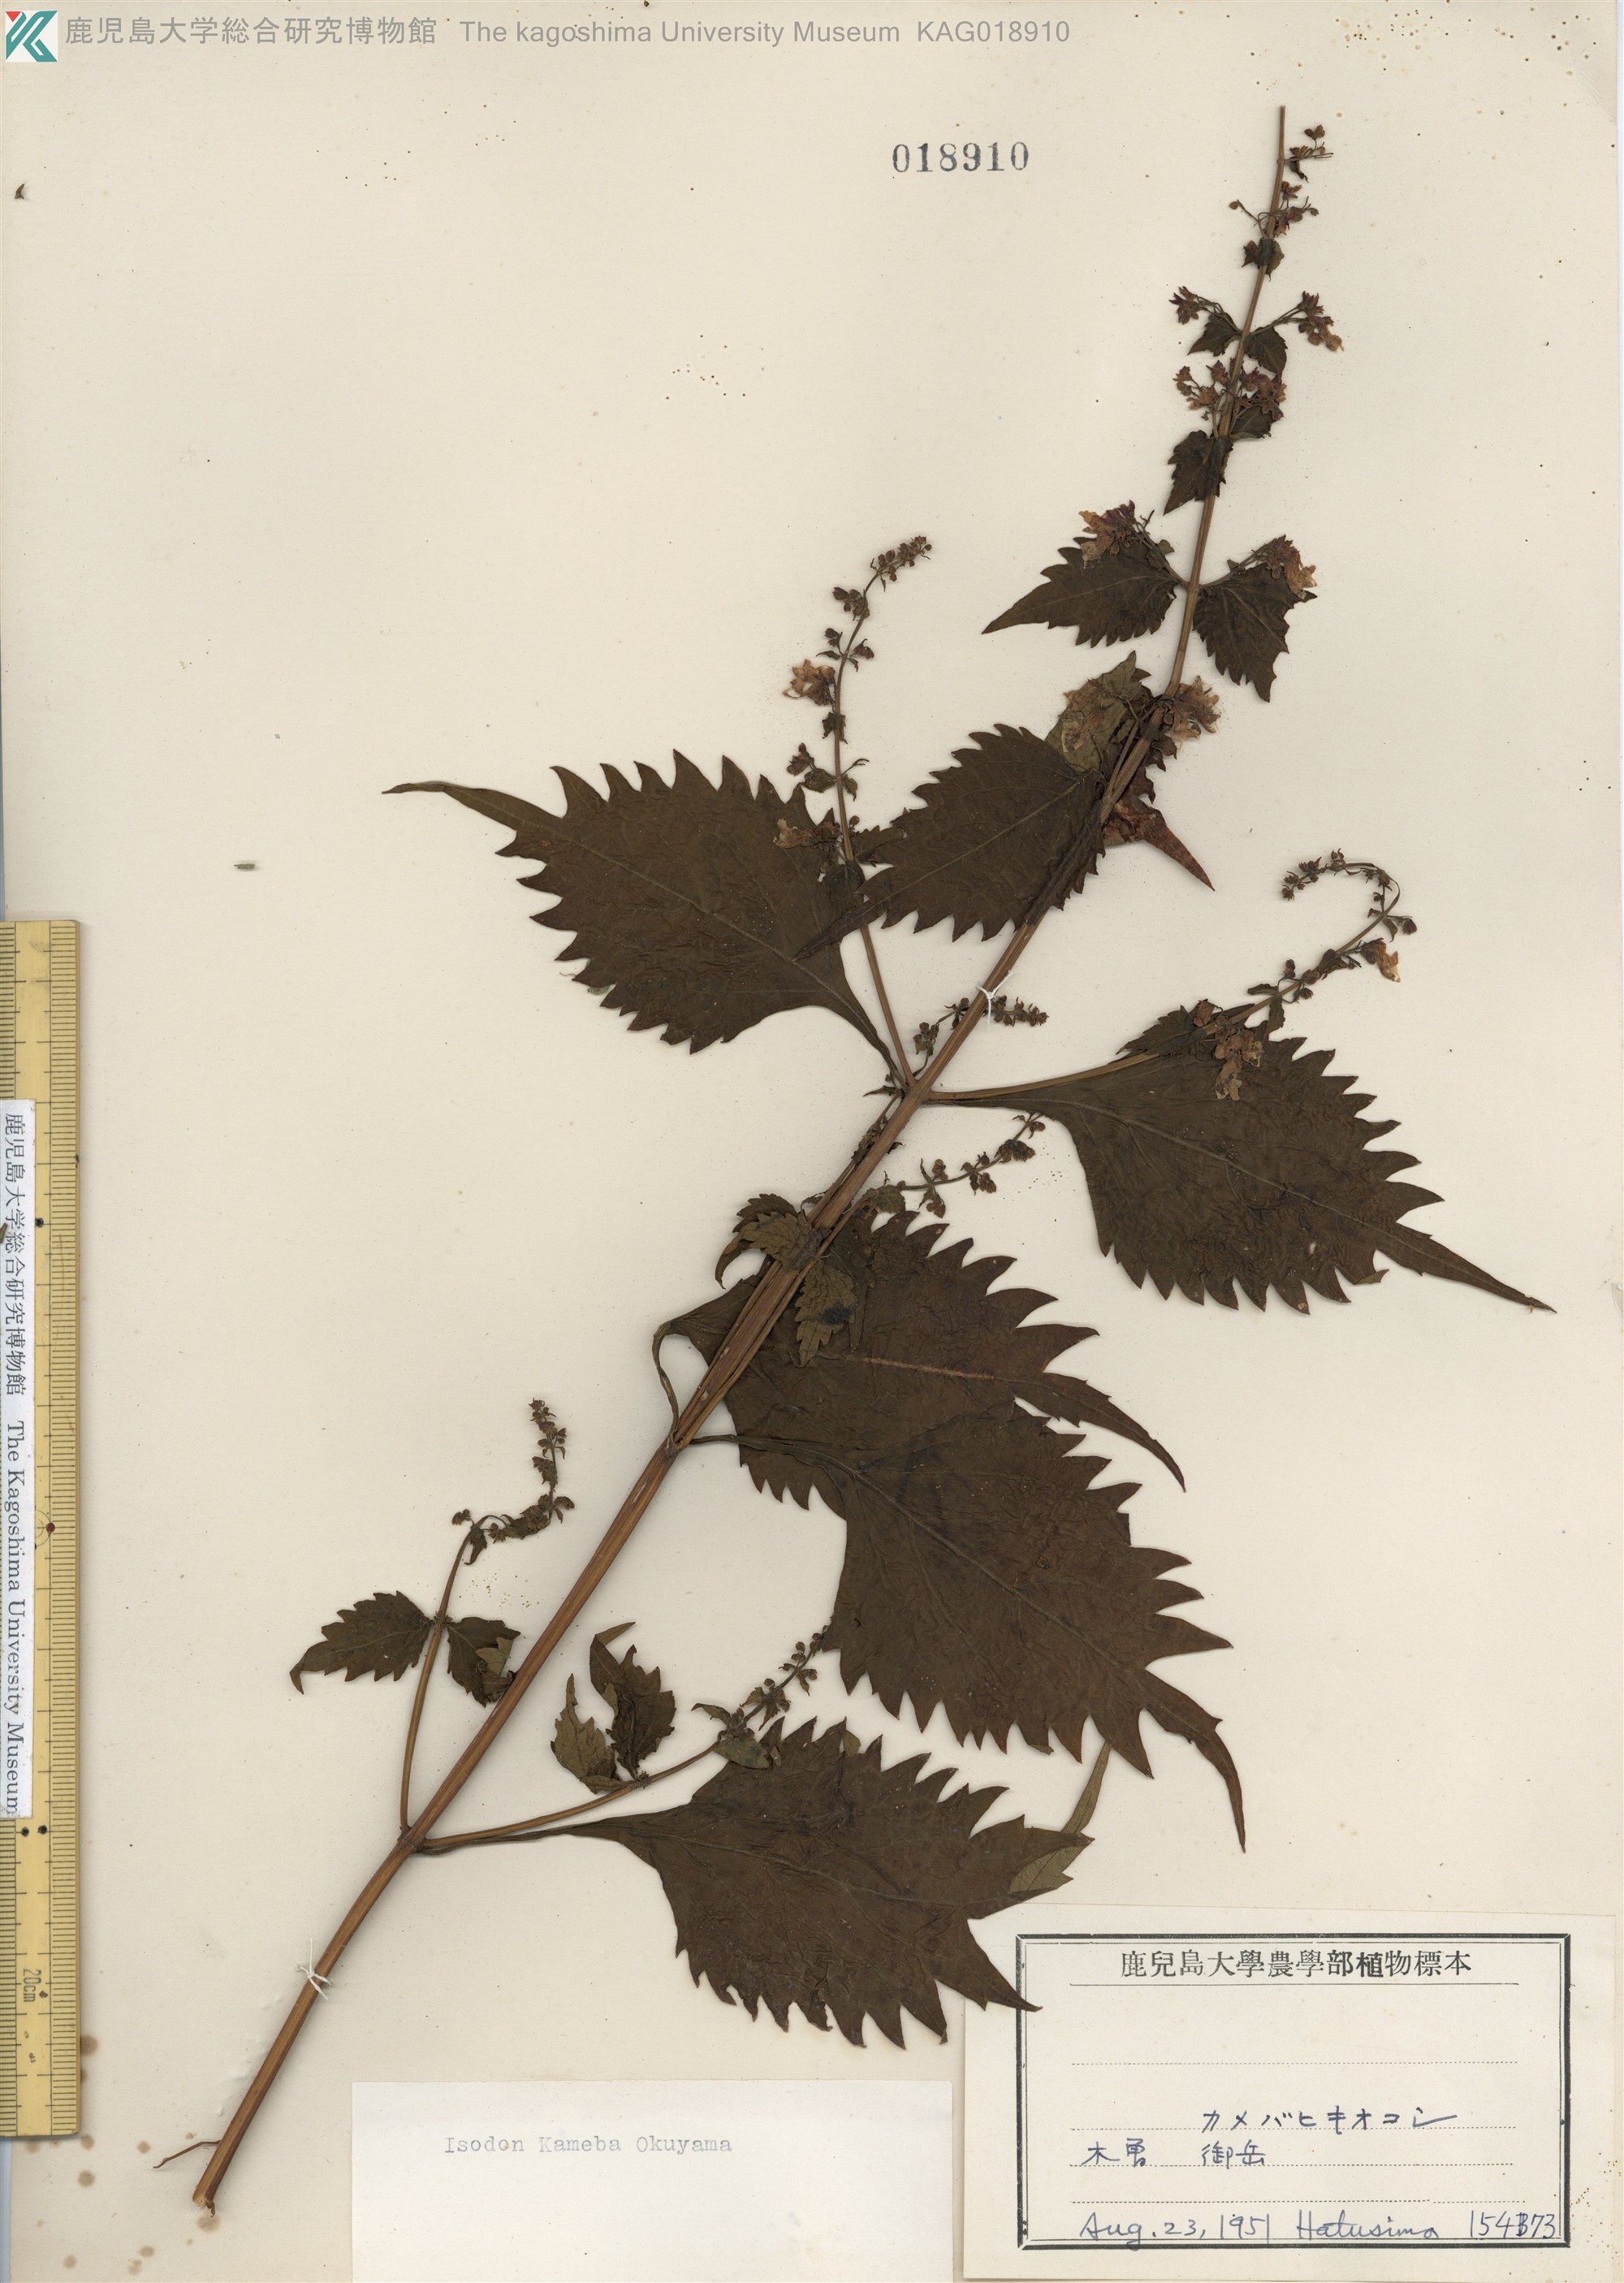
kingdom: Plantae
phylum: Tracheophyta
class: Magnoliopsida
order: Lamiales
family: Lamiaceae
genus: Isodon
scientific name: Isodon umbrosus
